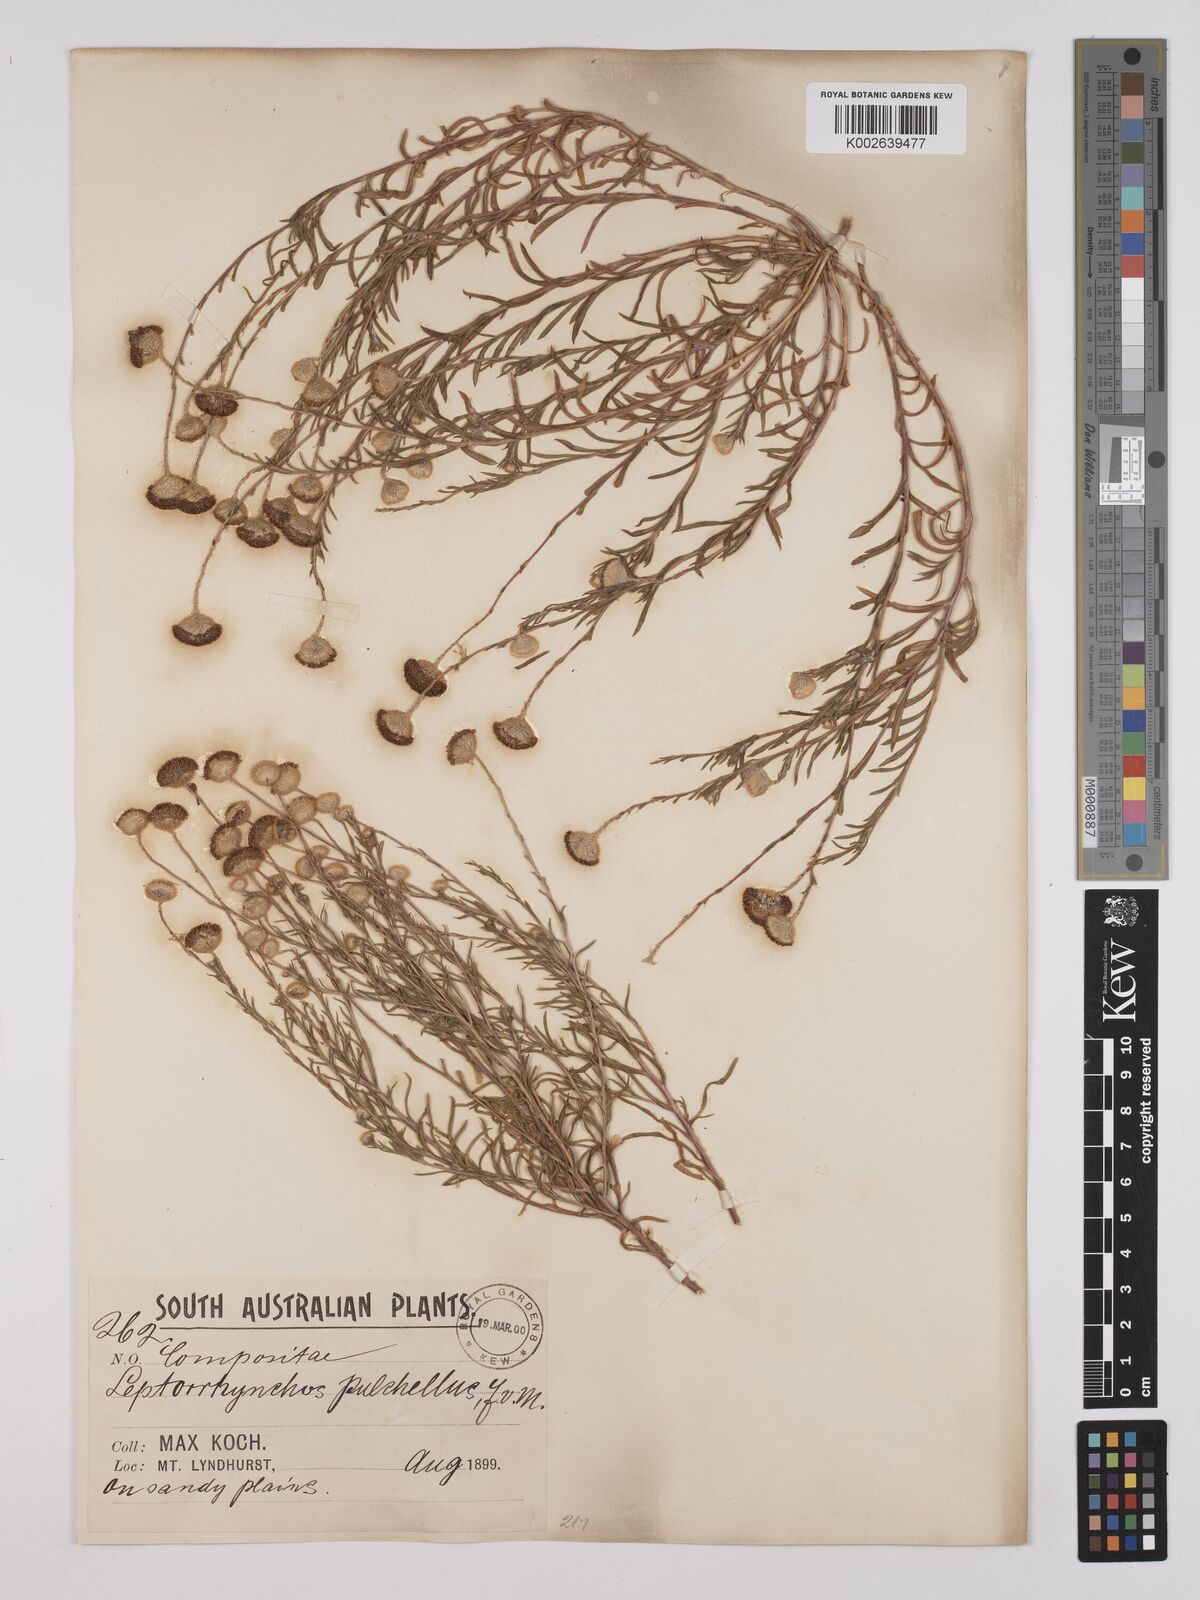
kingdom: Plantae
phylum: Tracheophyta
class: Magnoliopsida
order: Asterales
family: Asteraceae
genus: Leptorhynchos
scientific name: Leptorhynchos tetrachaetus
